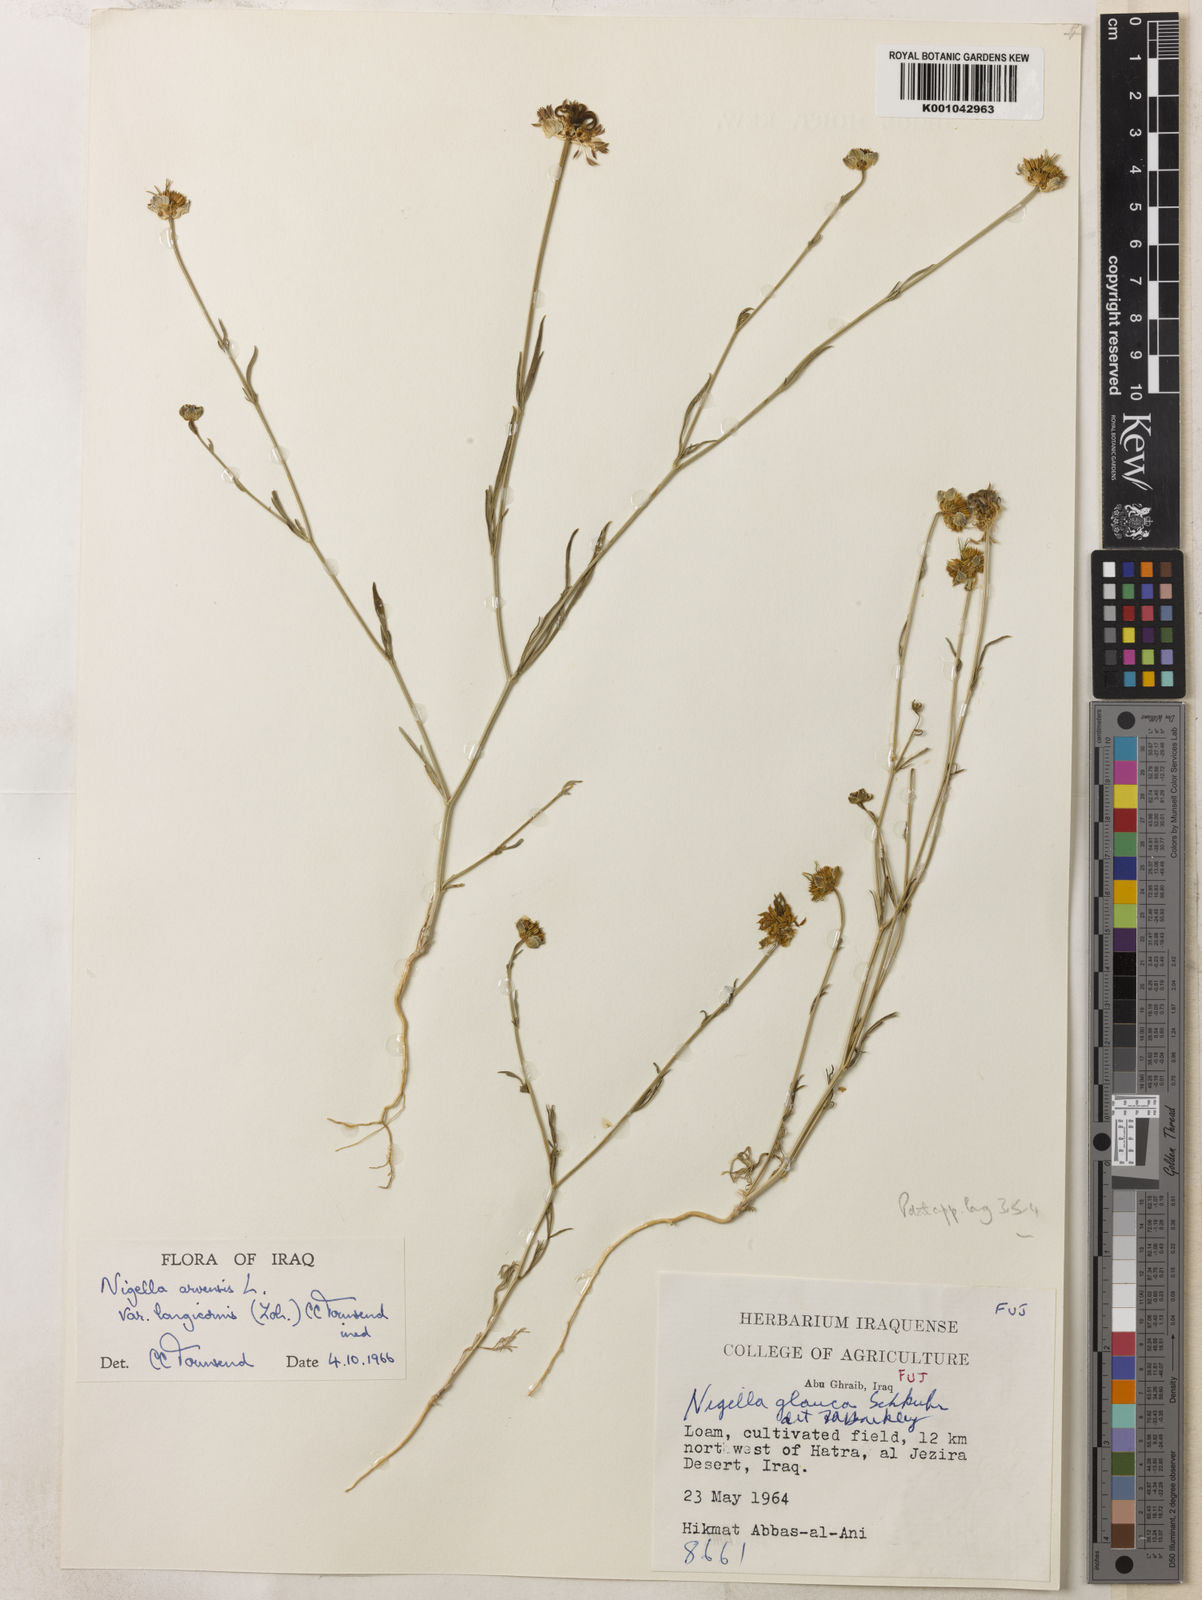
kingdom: Plantae
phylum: Tracheophyta
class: Magnoliopsida
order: Ranunculales
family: Ranunculaceae
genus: Nigella
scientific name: Nigella arvensis
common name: Wild fennel-flower
